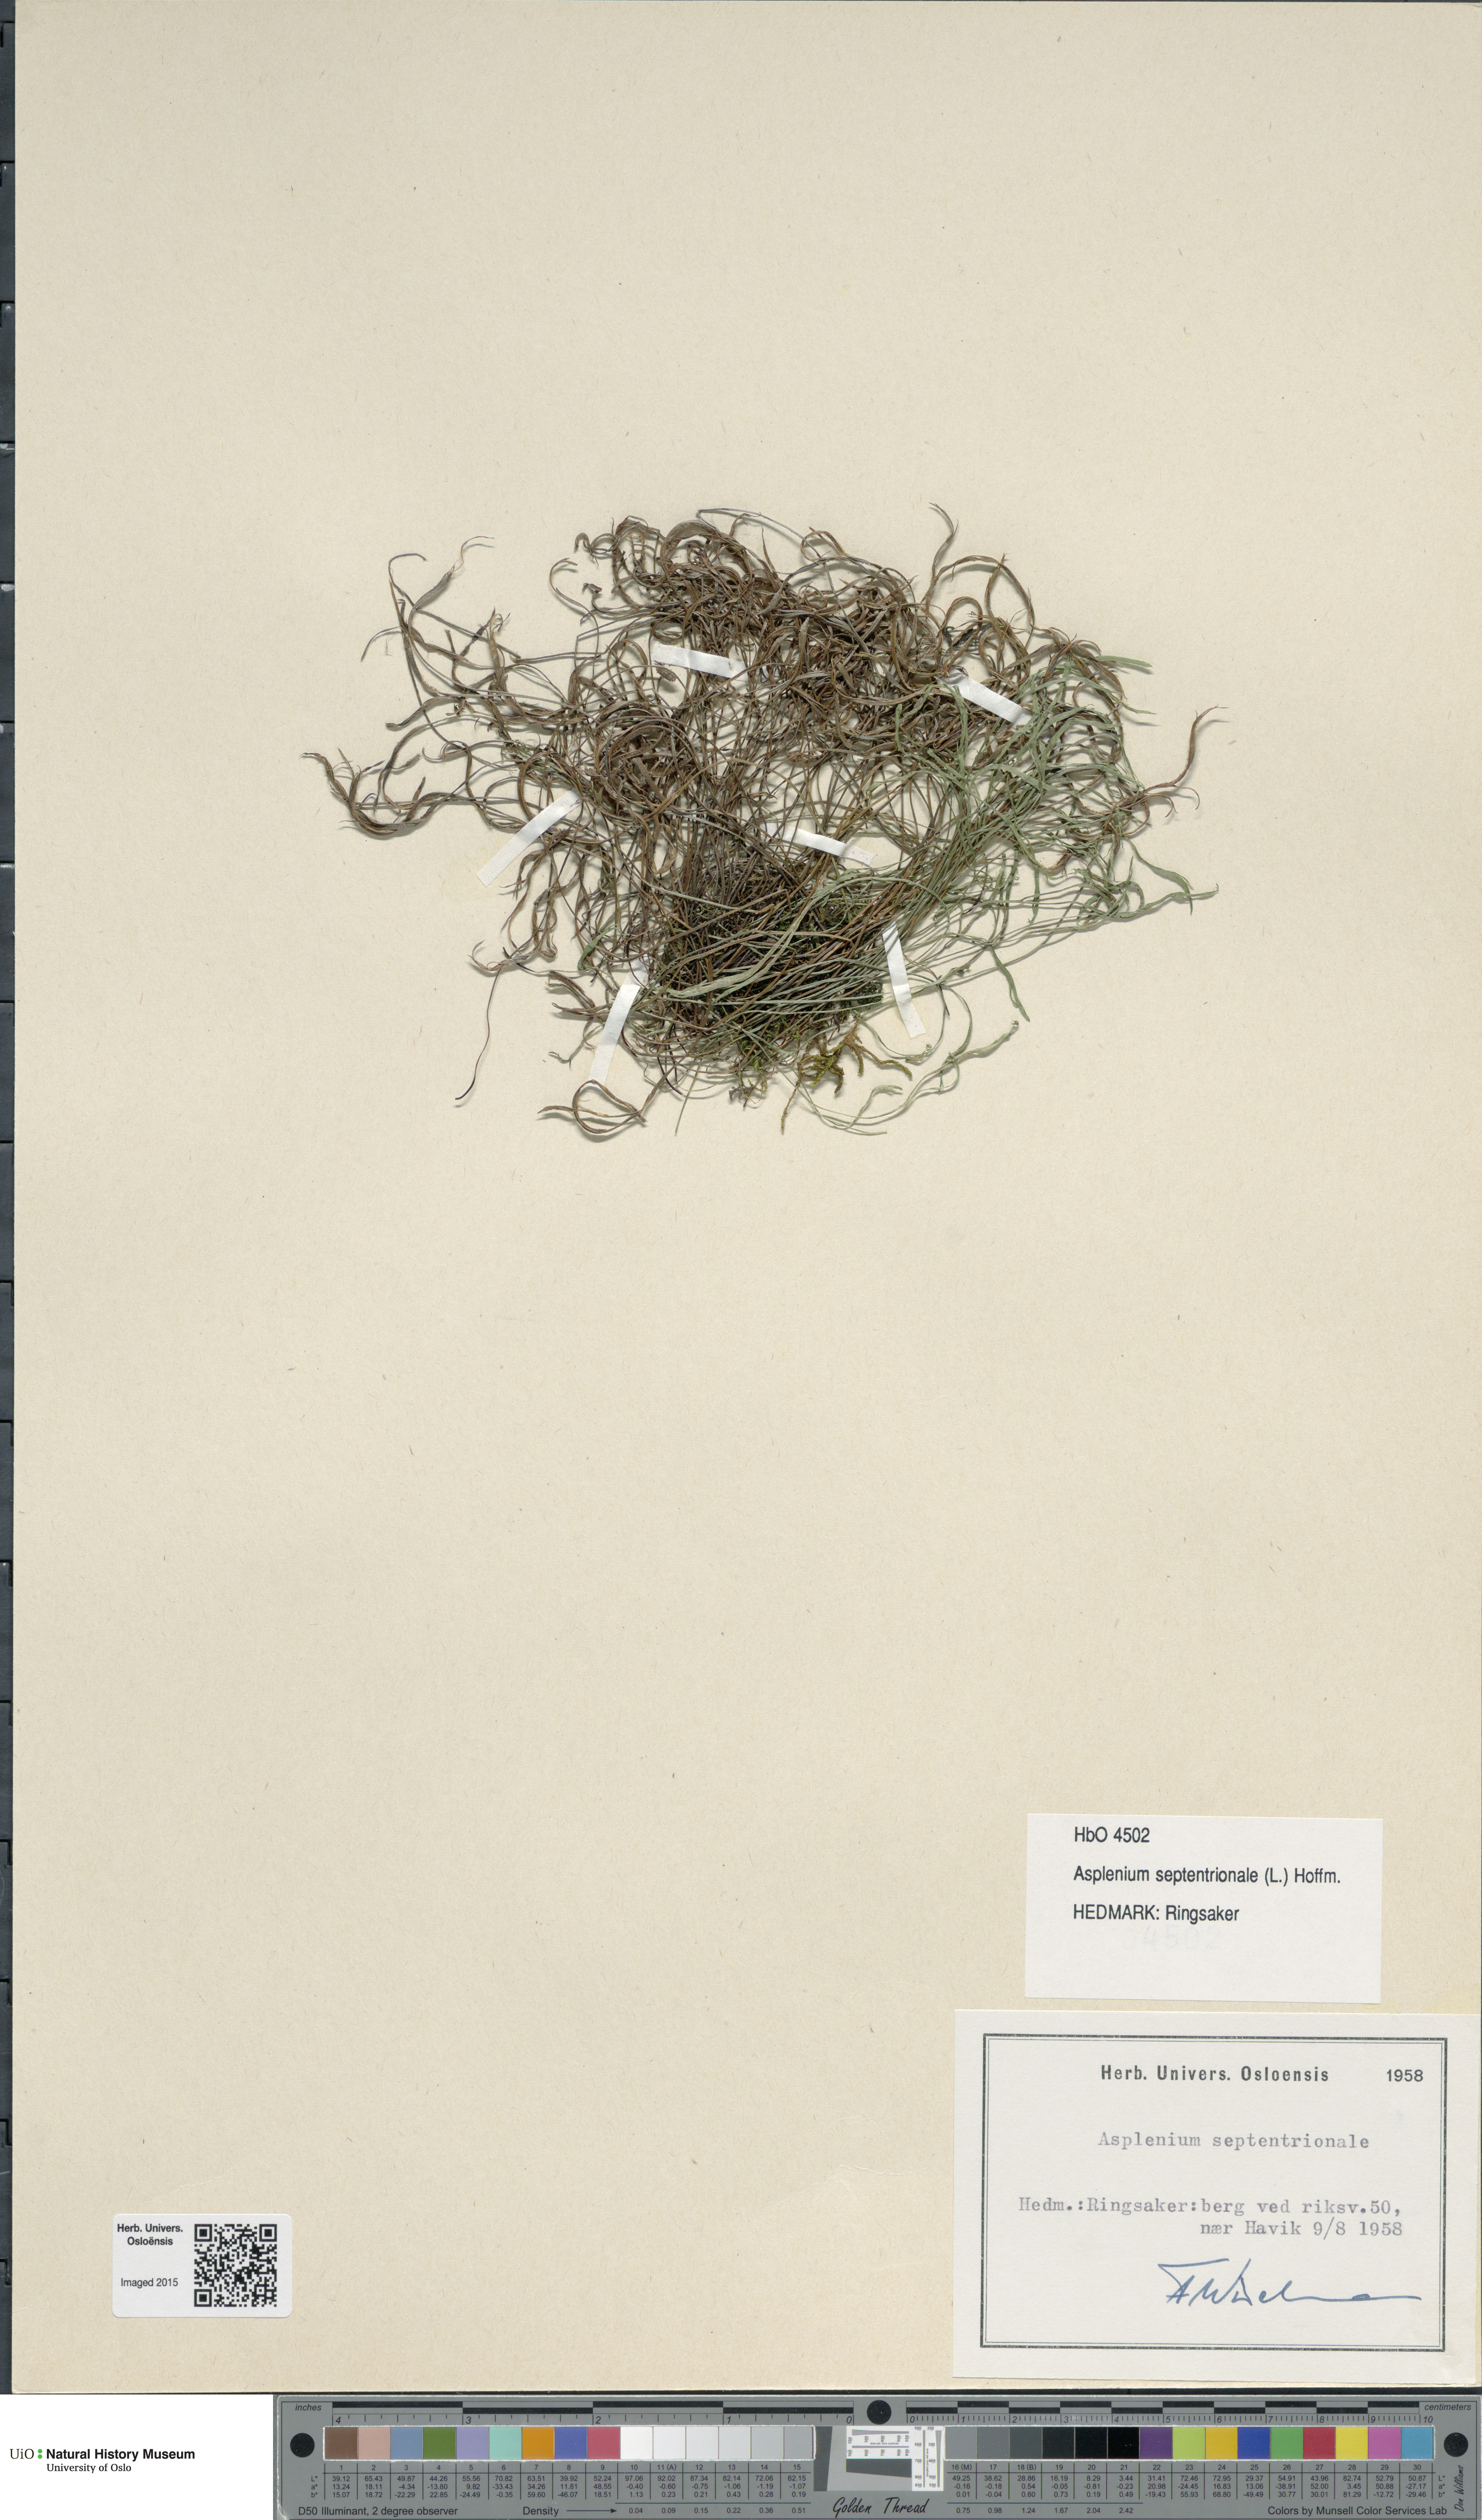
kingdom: Plantae
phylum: Tracheophyta
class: Polypodiopsida
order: Polypodiales
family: Aspleniaceae
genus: Asplenium
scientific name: Asplenium septentrionale
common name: Forked spleenwort
